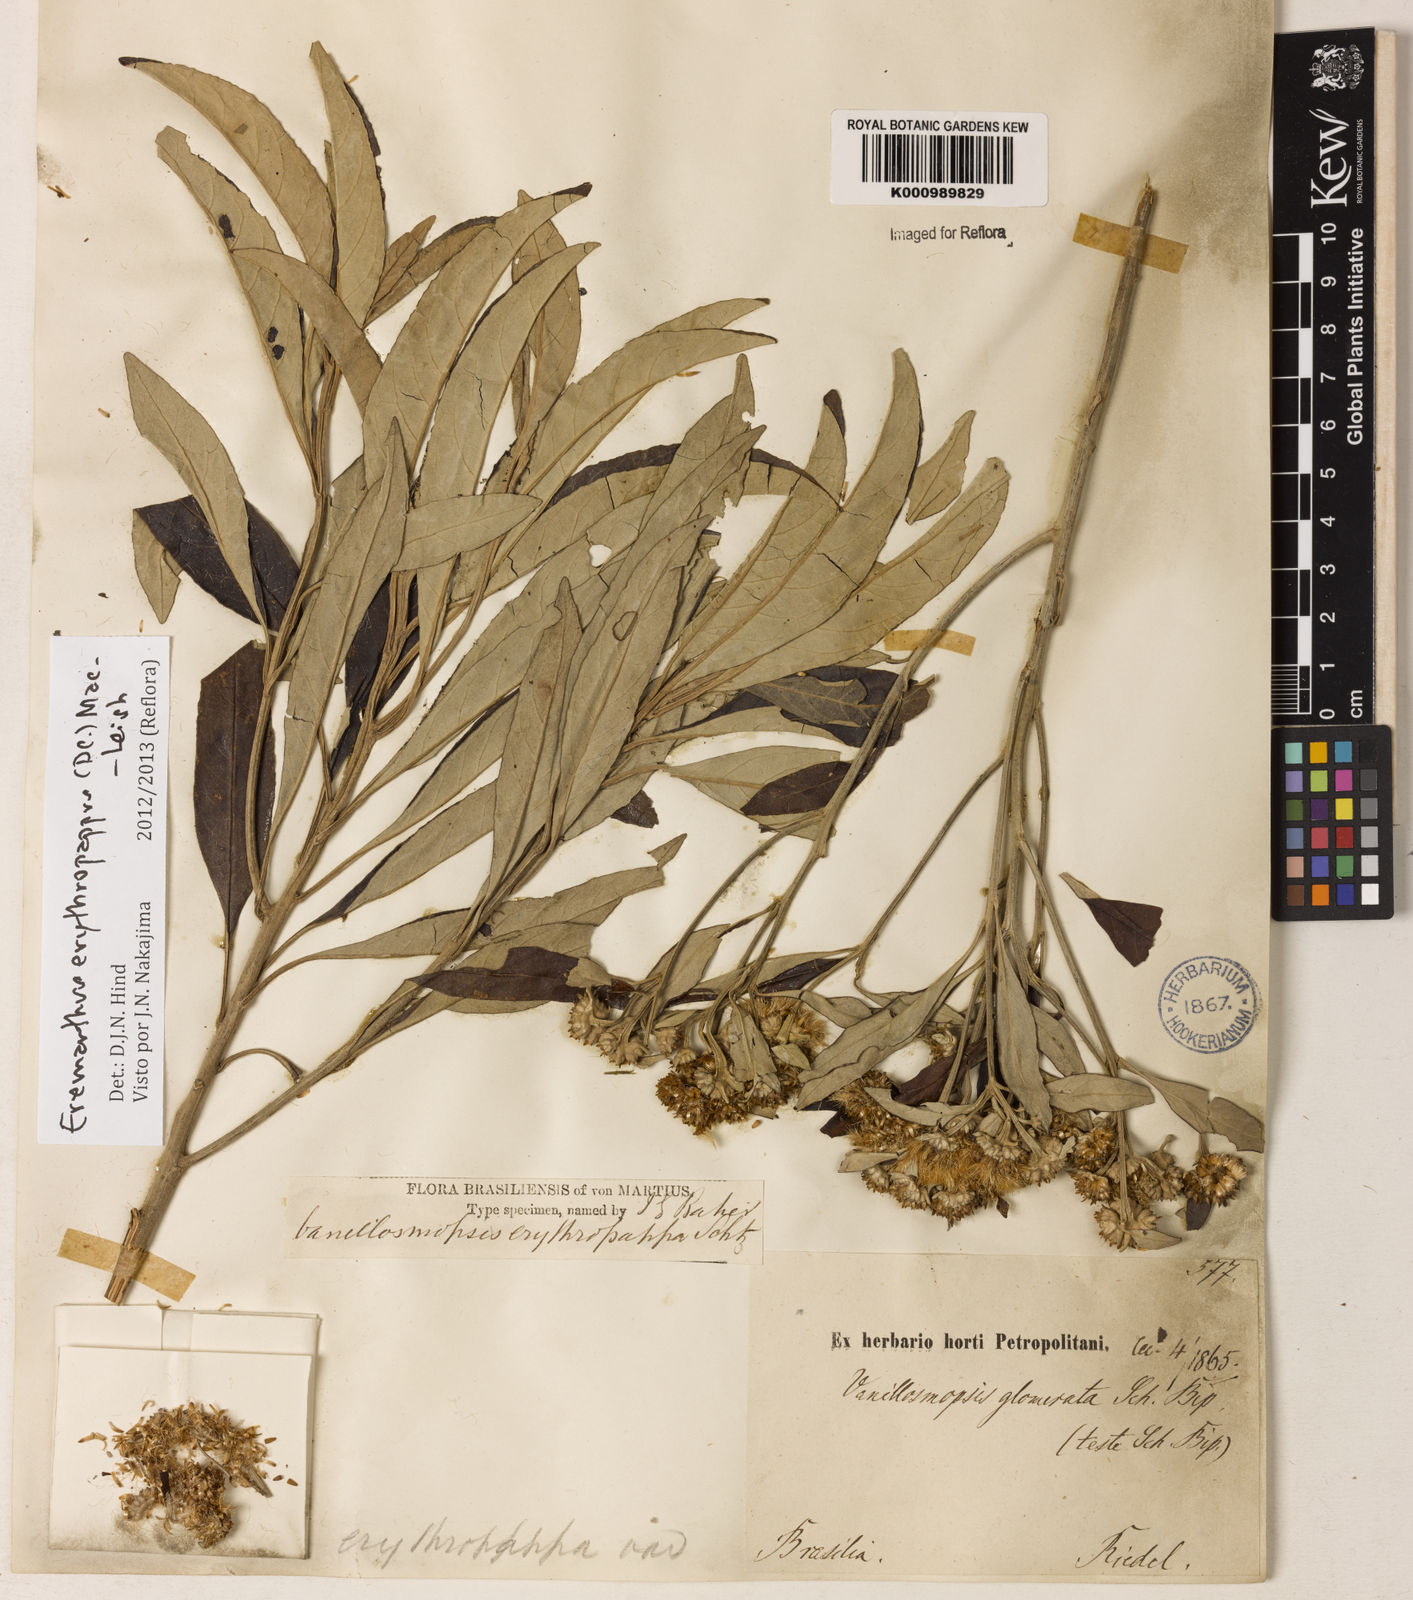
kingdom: Plantae
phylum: Tracheophyta
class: Magnoliopsida
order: Asterales
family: Asteraceae
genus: Eremanthus
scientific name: Eremanthus erythropappus
